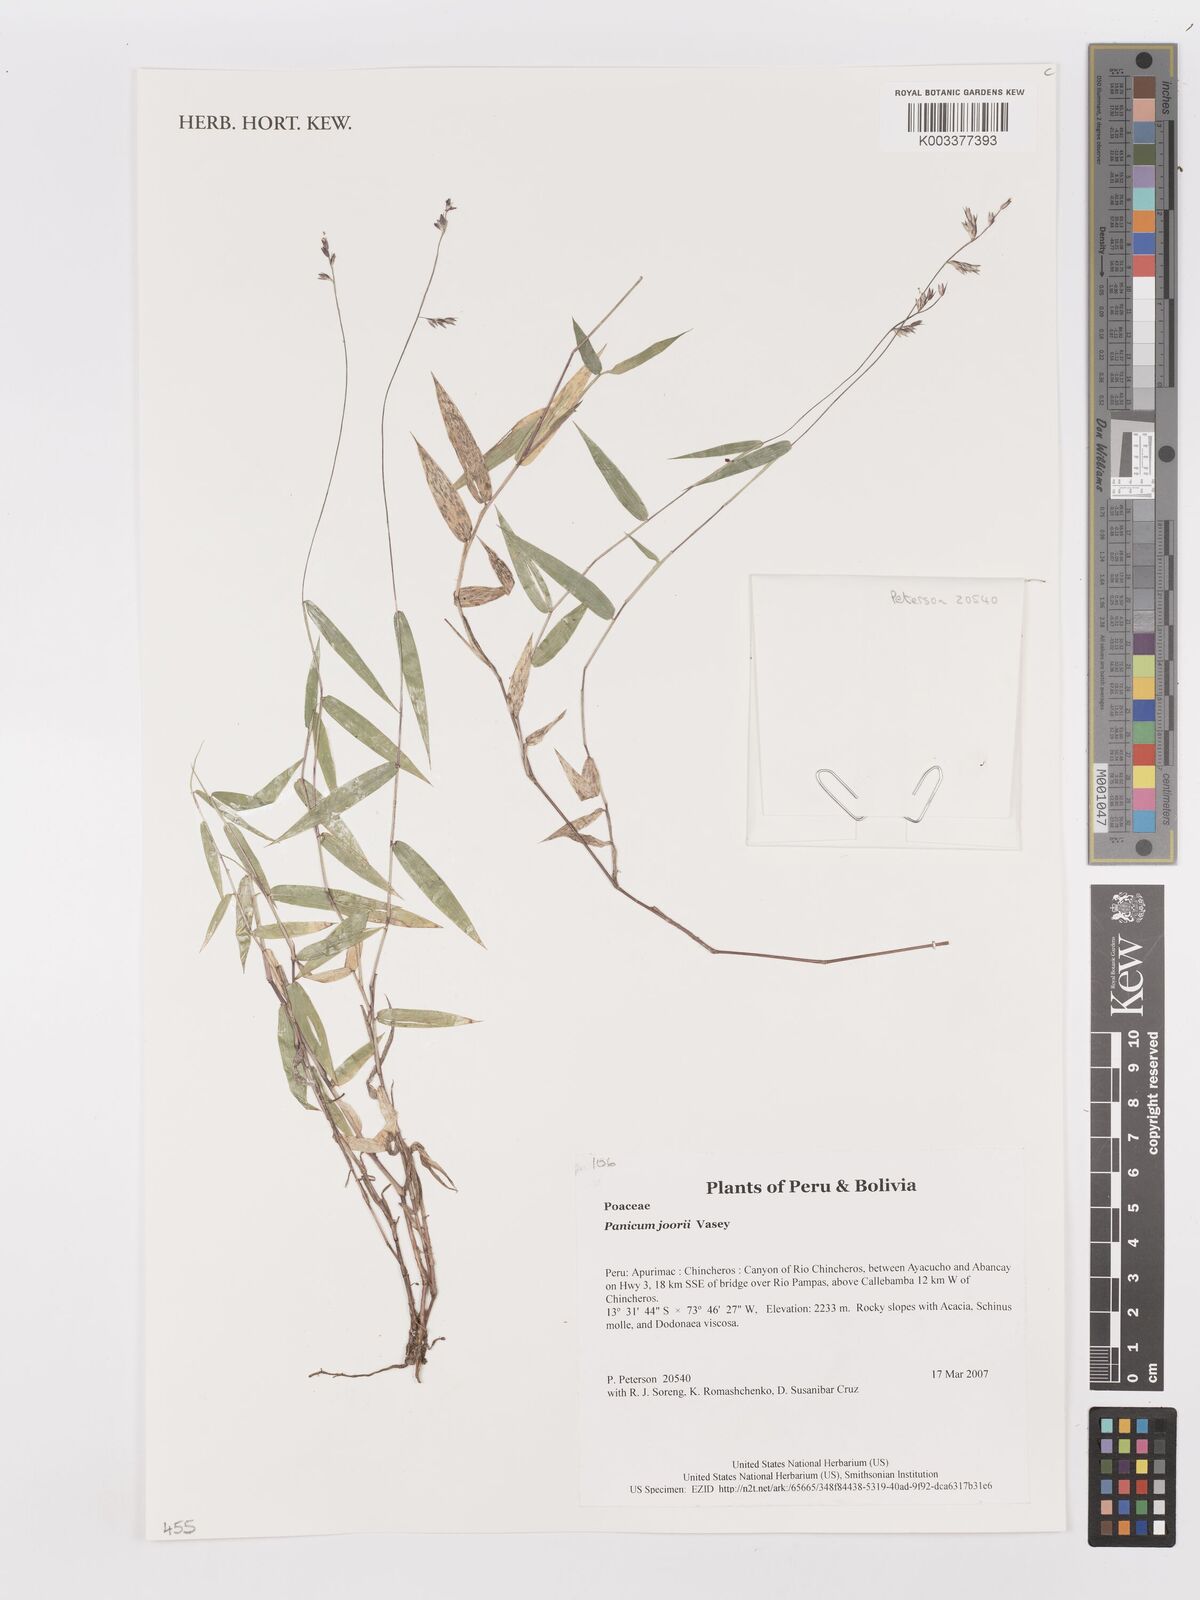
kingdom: Plantae
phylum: Tracheophyta
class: Liliopsida
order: Poales
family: Poaceae
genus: Dichanthelium
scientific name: Dichanthelium commutatum
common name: Variable witchgrass
